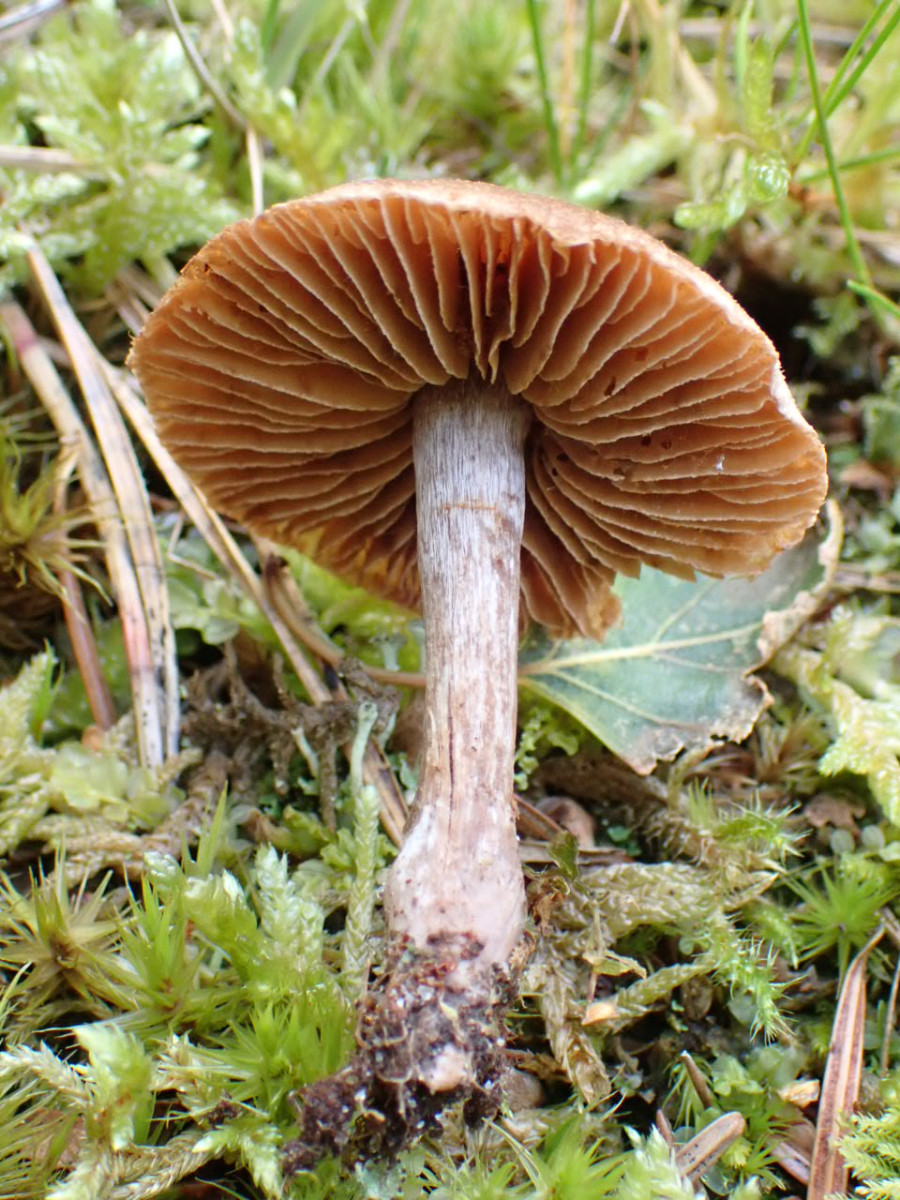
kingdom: Fungi
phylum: Basidiomycota
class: Agaricomycetes
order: Agaricales
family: Cortinariaceae
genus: Cortinarius
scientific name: Cortinarius
